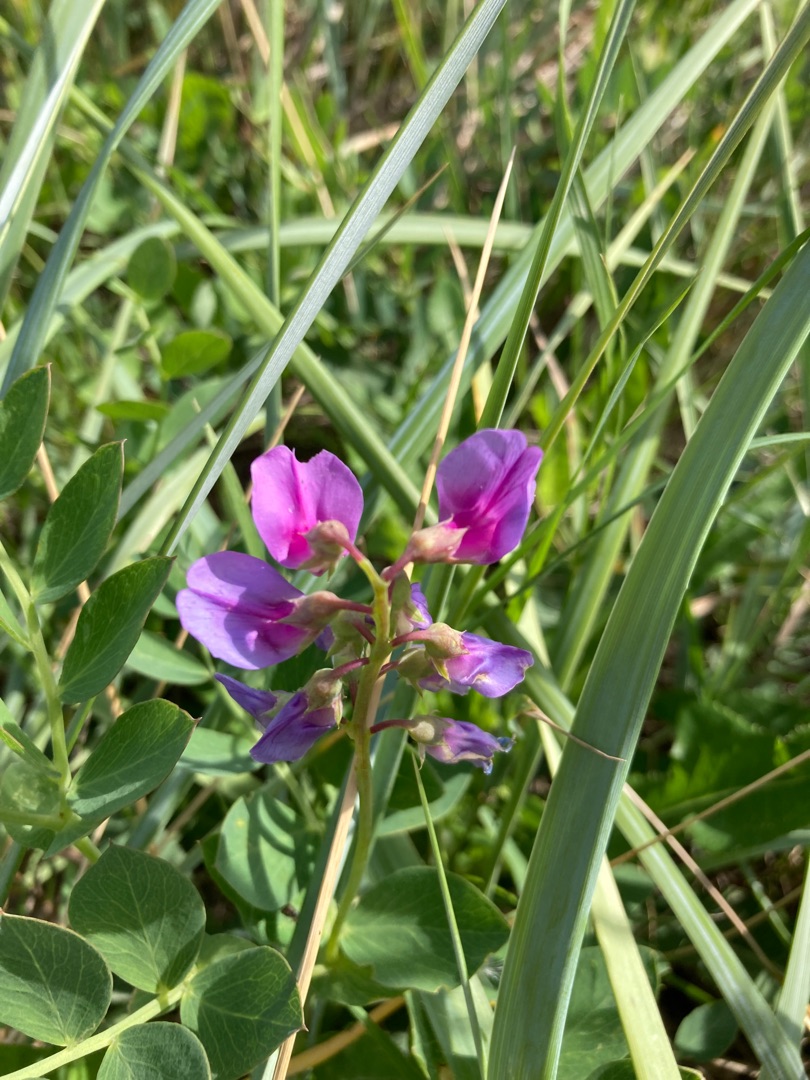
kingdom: Plantae
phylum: Tracheophyta
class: Magnoliopsida
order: Fabales
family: Fabaceae
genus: Lathyrus
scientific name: Lathyrus japonicus
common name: Strand-fladbælg
